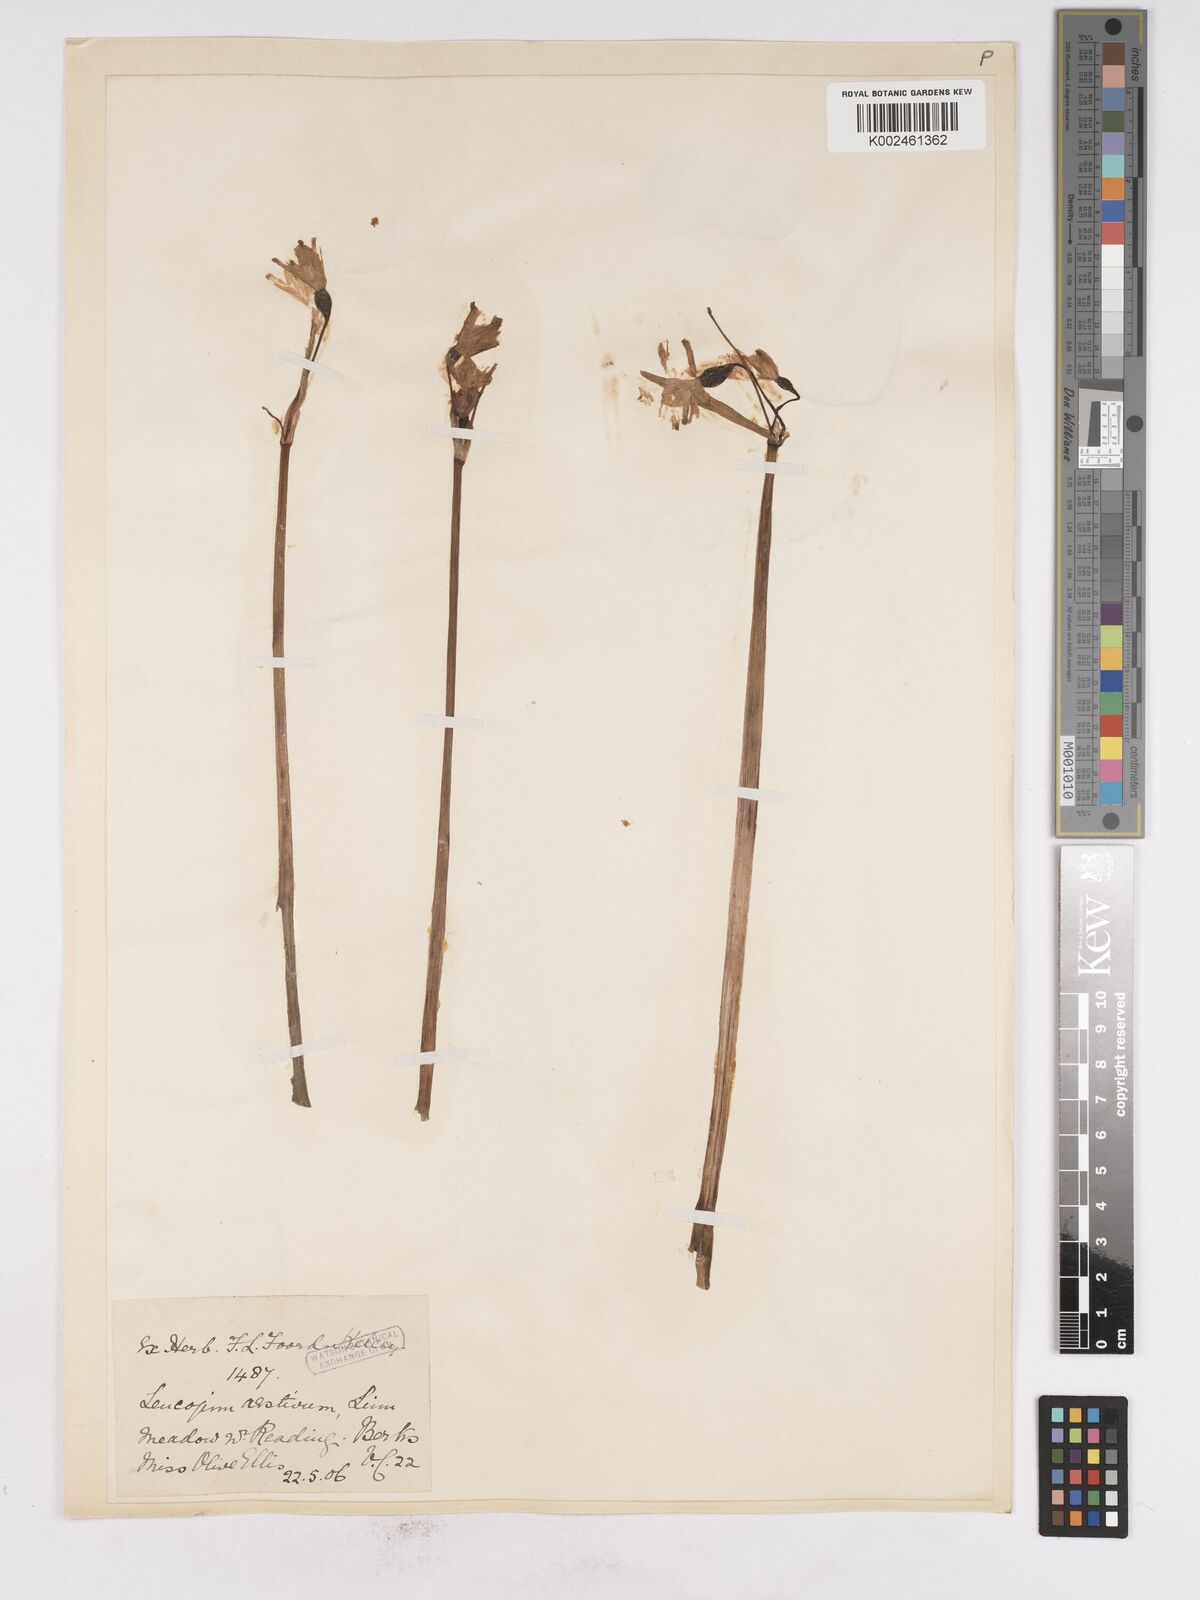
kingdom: Plantae
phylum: Tracheophyta
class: Liliopsida
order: Asparagales
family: Amaryllidaceae
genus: Leucojum
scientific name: Leucojum aestivum
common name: Summer snowflake
